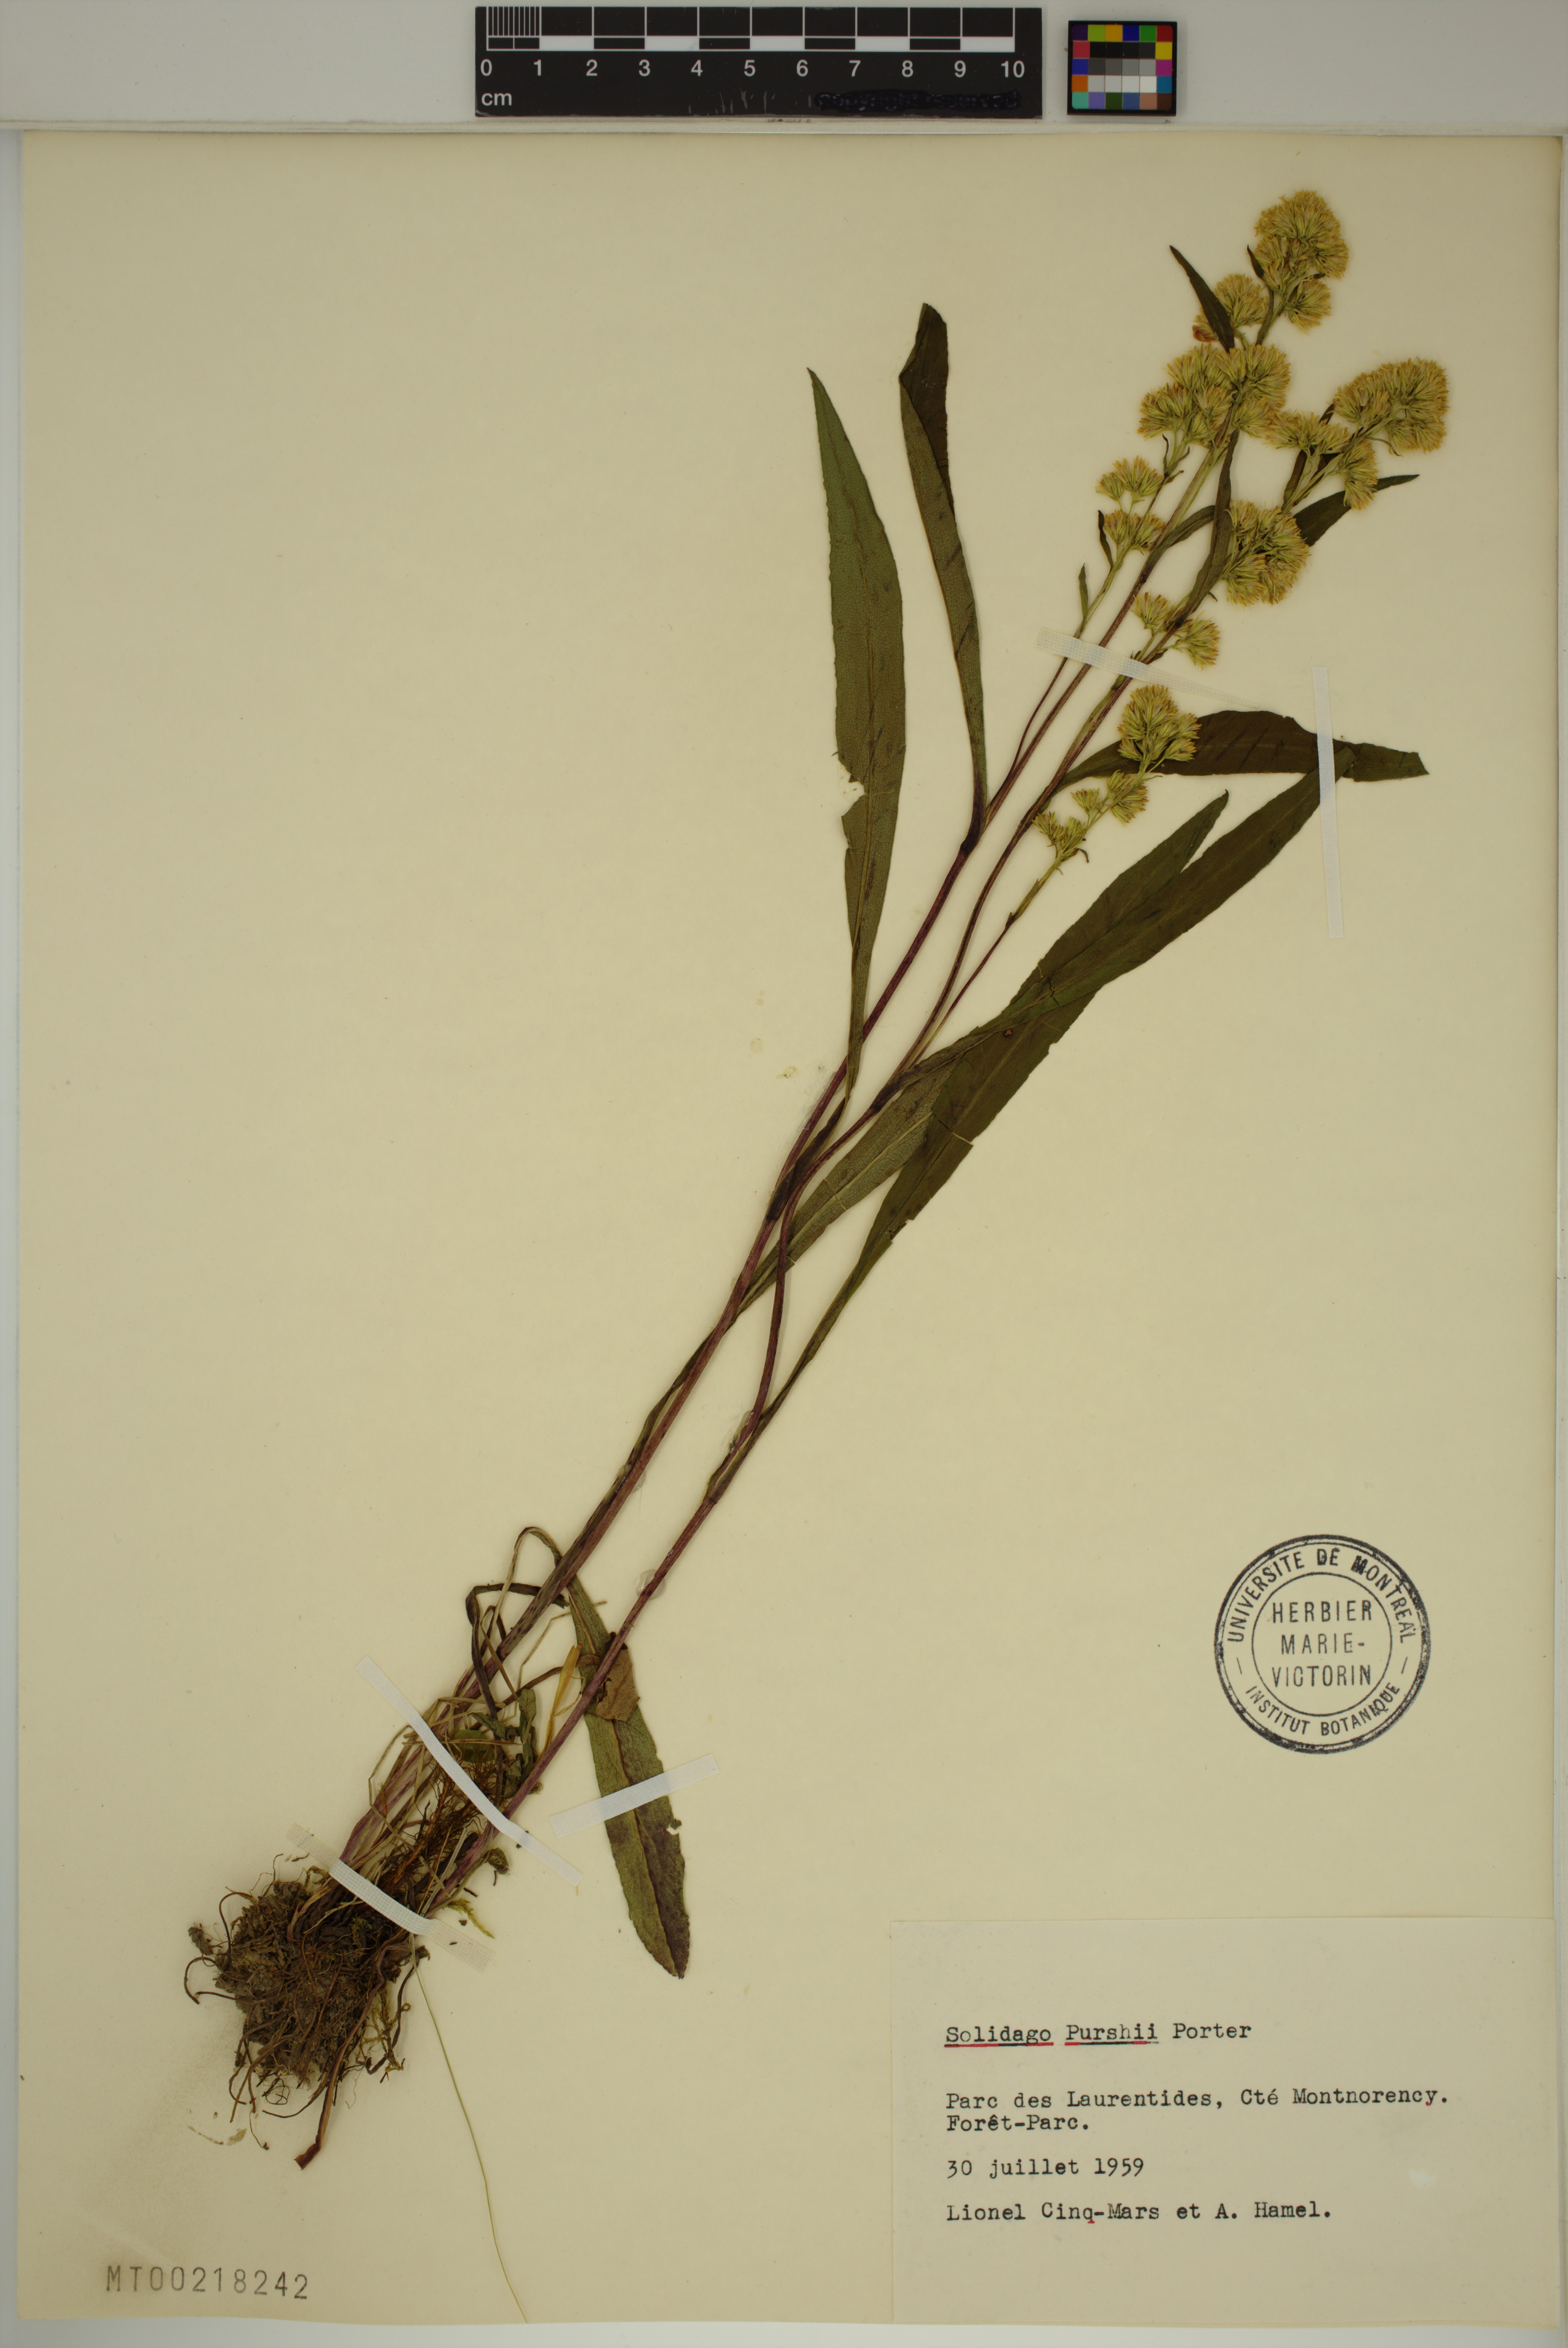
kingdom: Plantae
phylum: Tracheophyta
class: Magnoliopsida
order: Asterales
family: Asteraceae
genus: Solidago
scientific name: Solidago uliginosa
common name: Bog goldenrod
